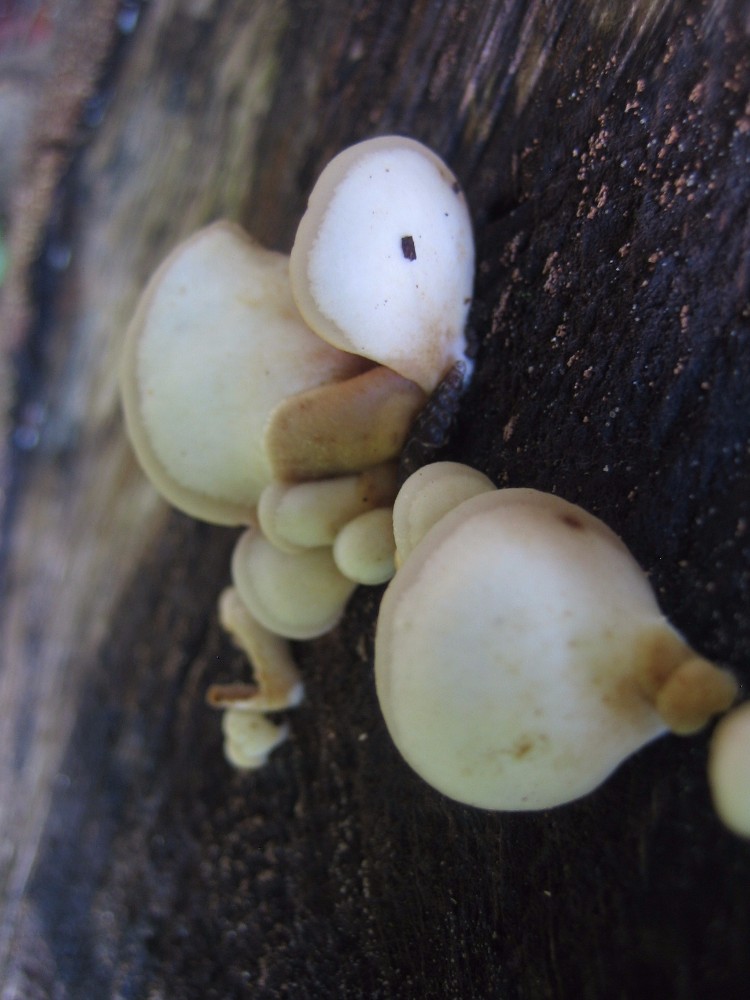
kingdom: Fungi
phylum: Basidiomycota
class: Agaricomycetes
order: Agaricales
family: Crepidotaceae
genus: Crepidotus
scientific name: Crepidotus mollis
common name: blød muslingesvamp
